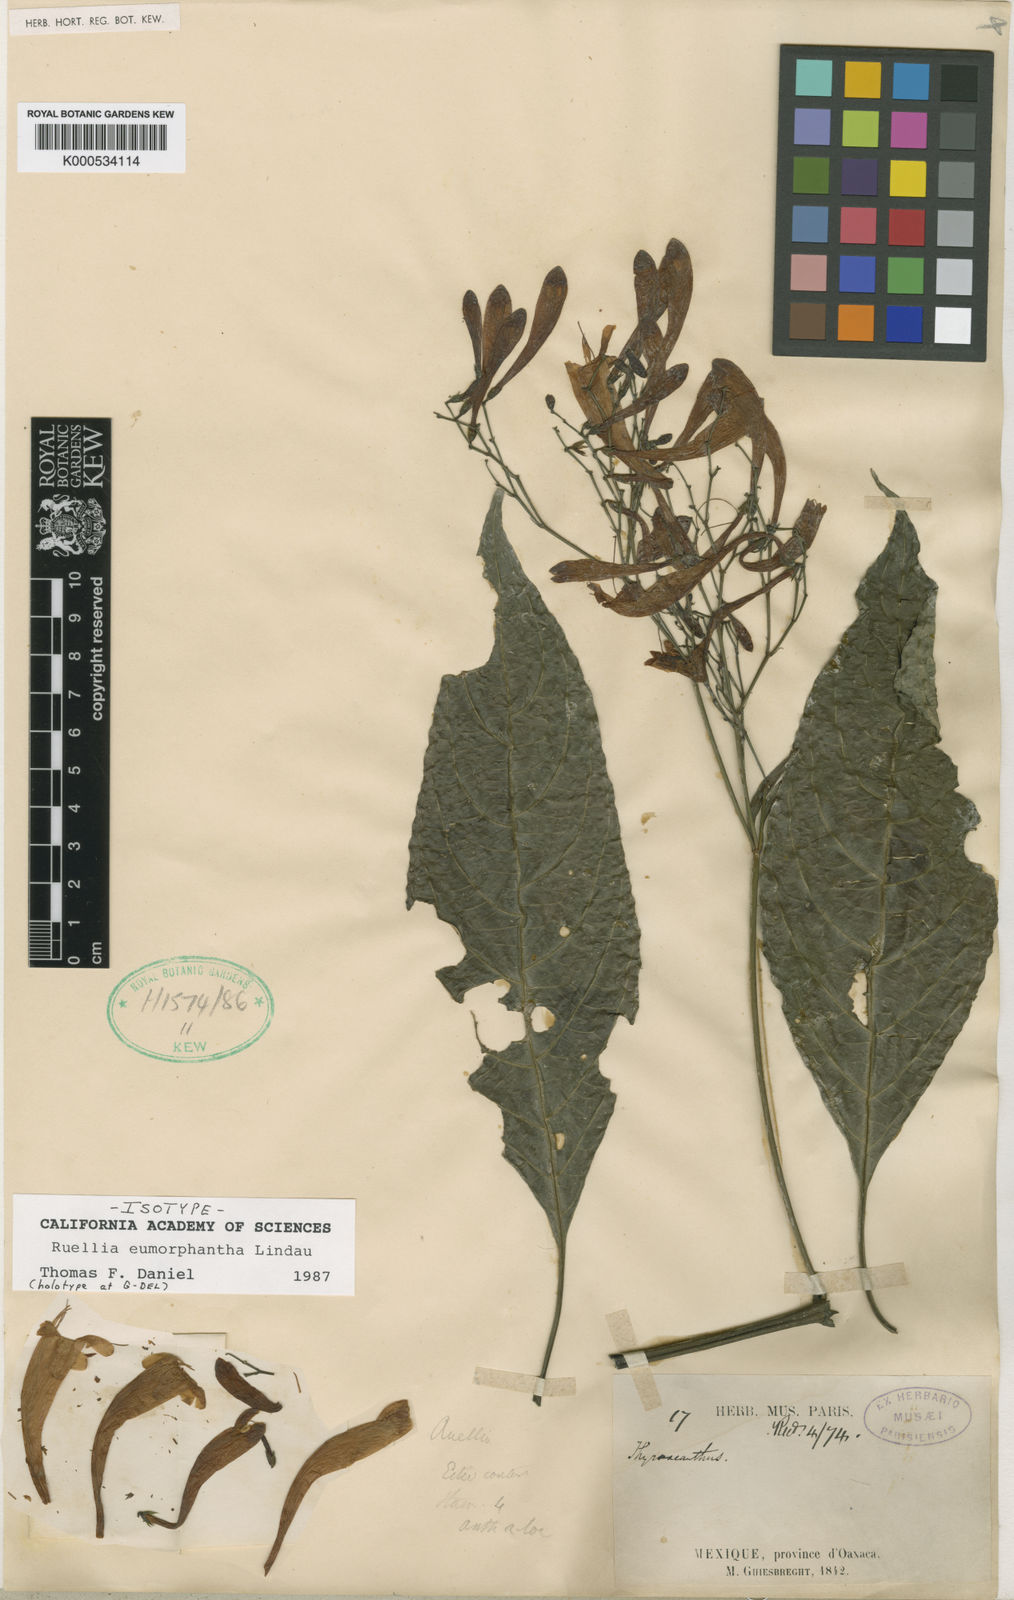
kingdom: Plantae
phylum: Tracheophyta
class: Magnoliopsida
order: Lamiales
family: Acanthaceae
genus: Ruellia
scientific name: Ruellia eumorphantha
